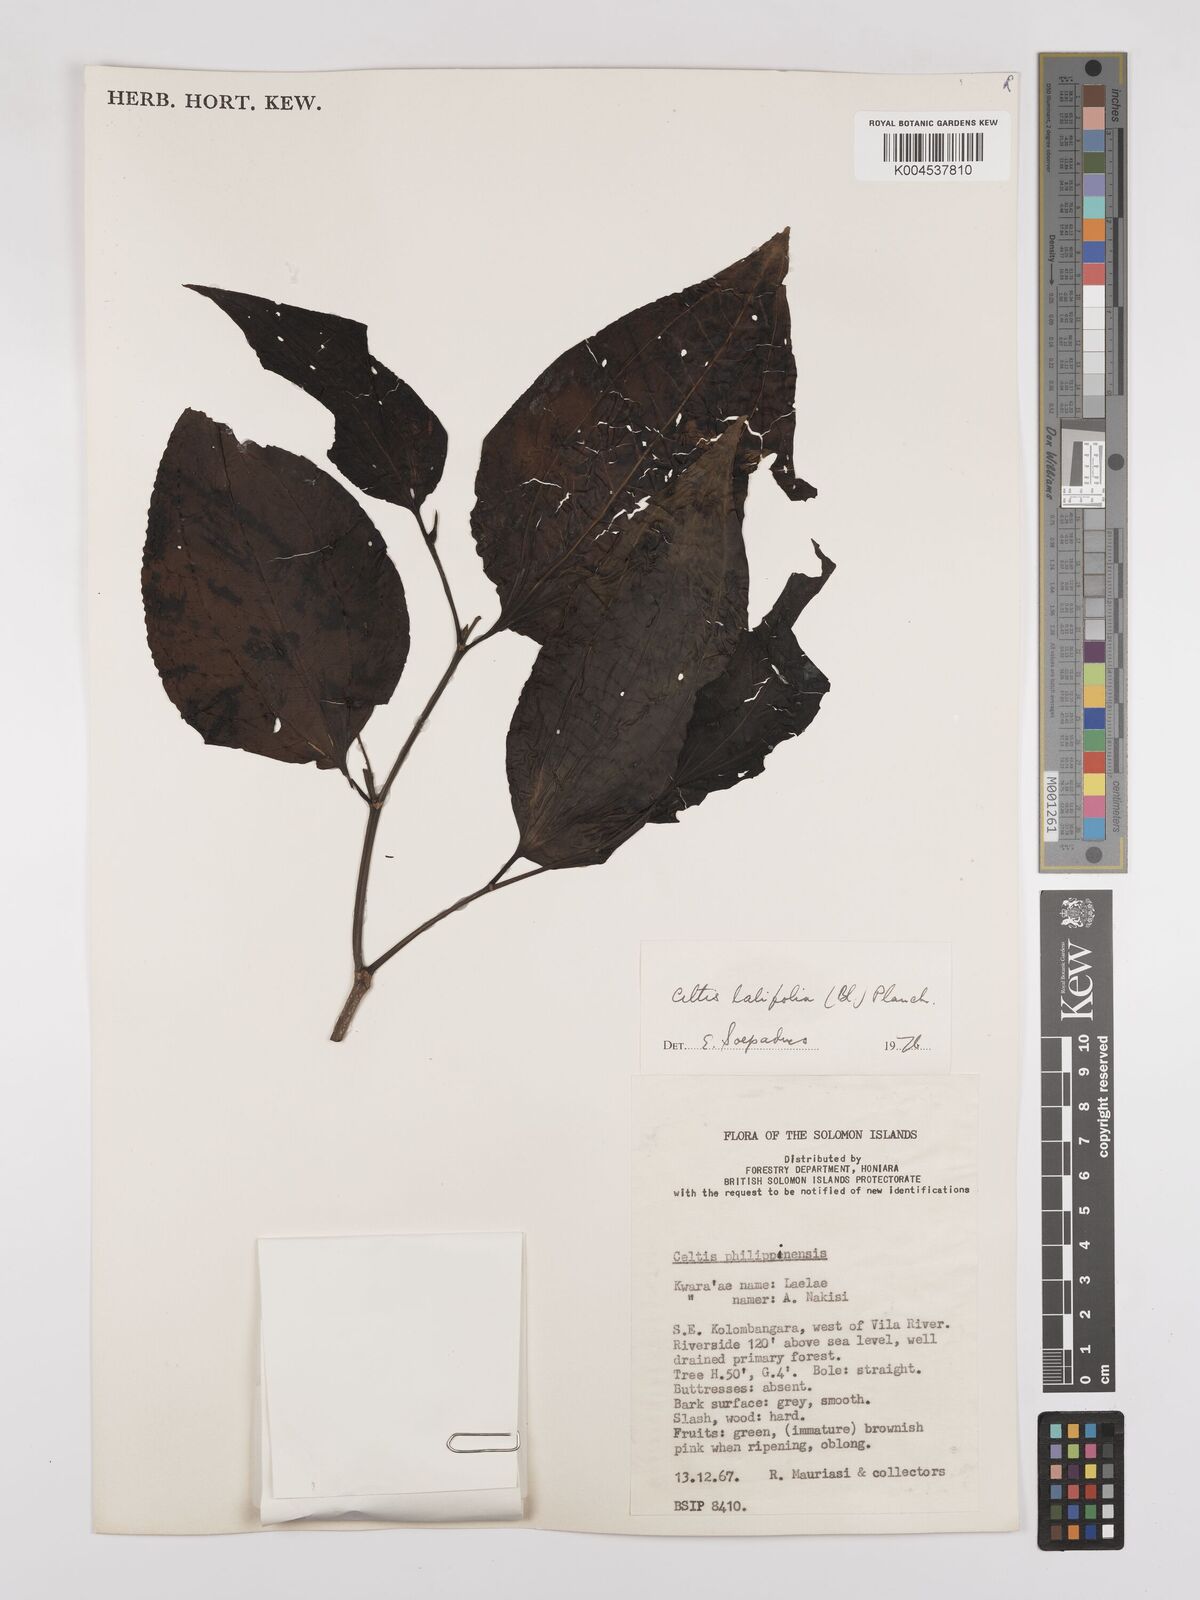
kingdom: Plantae
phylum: Tracheophyta
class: Magnoliopsida
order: Rosales
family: Cannabaceae
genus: Celtis
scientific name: Celtis latifolia
